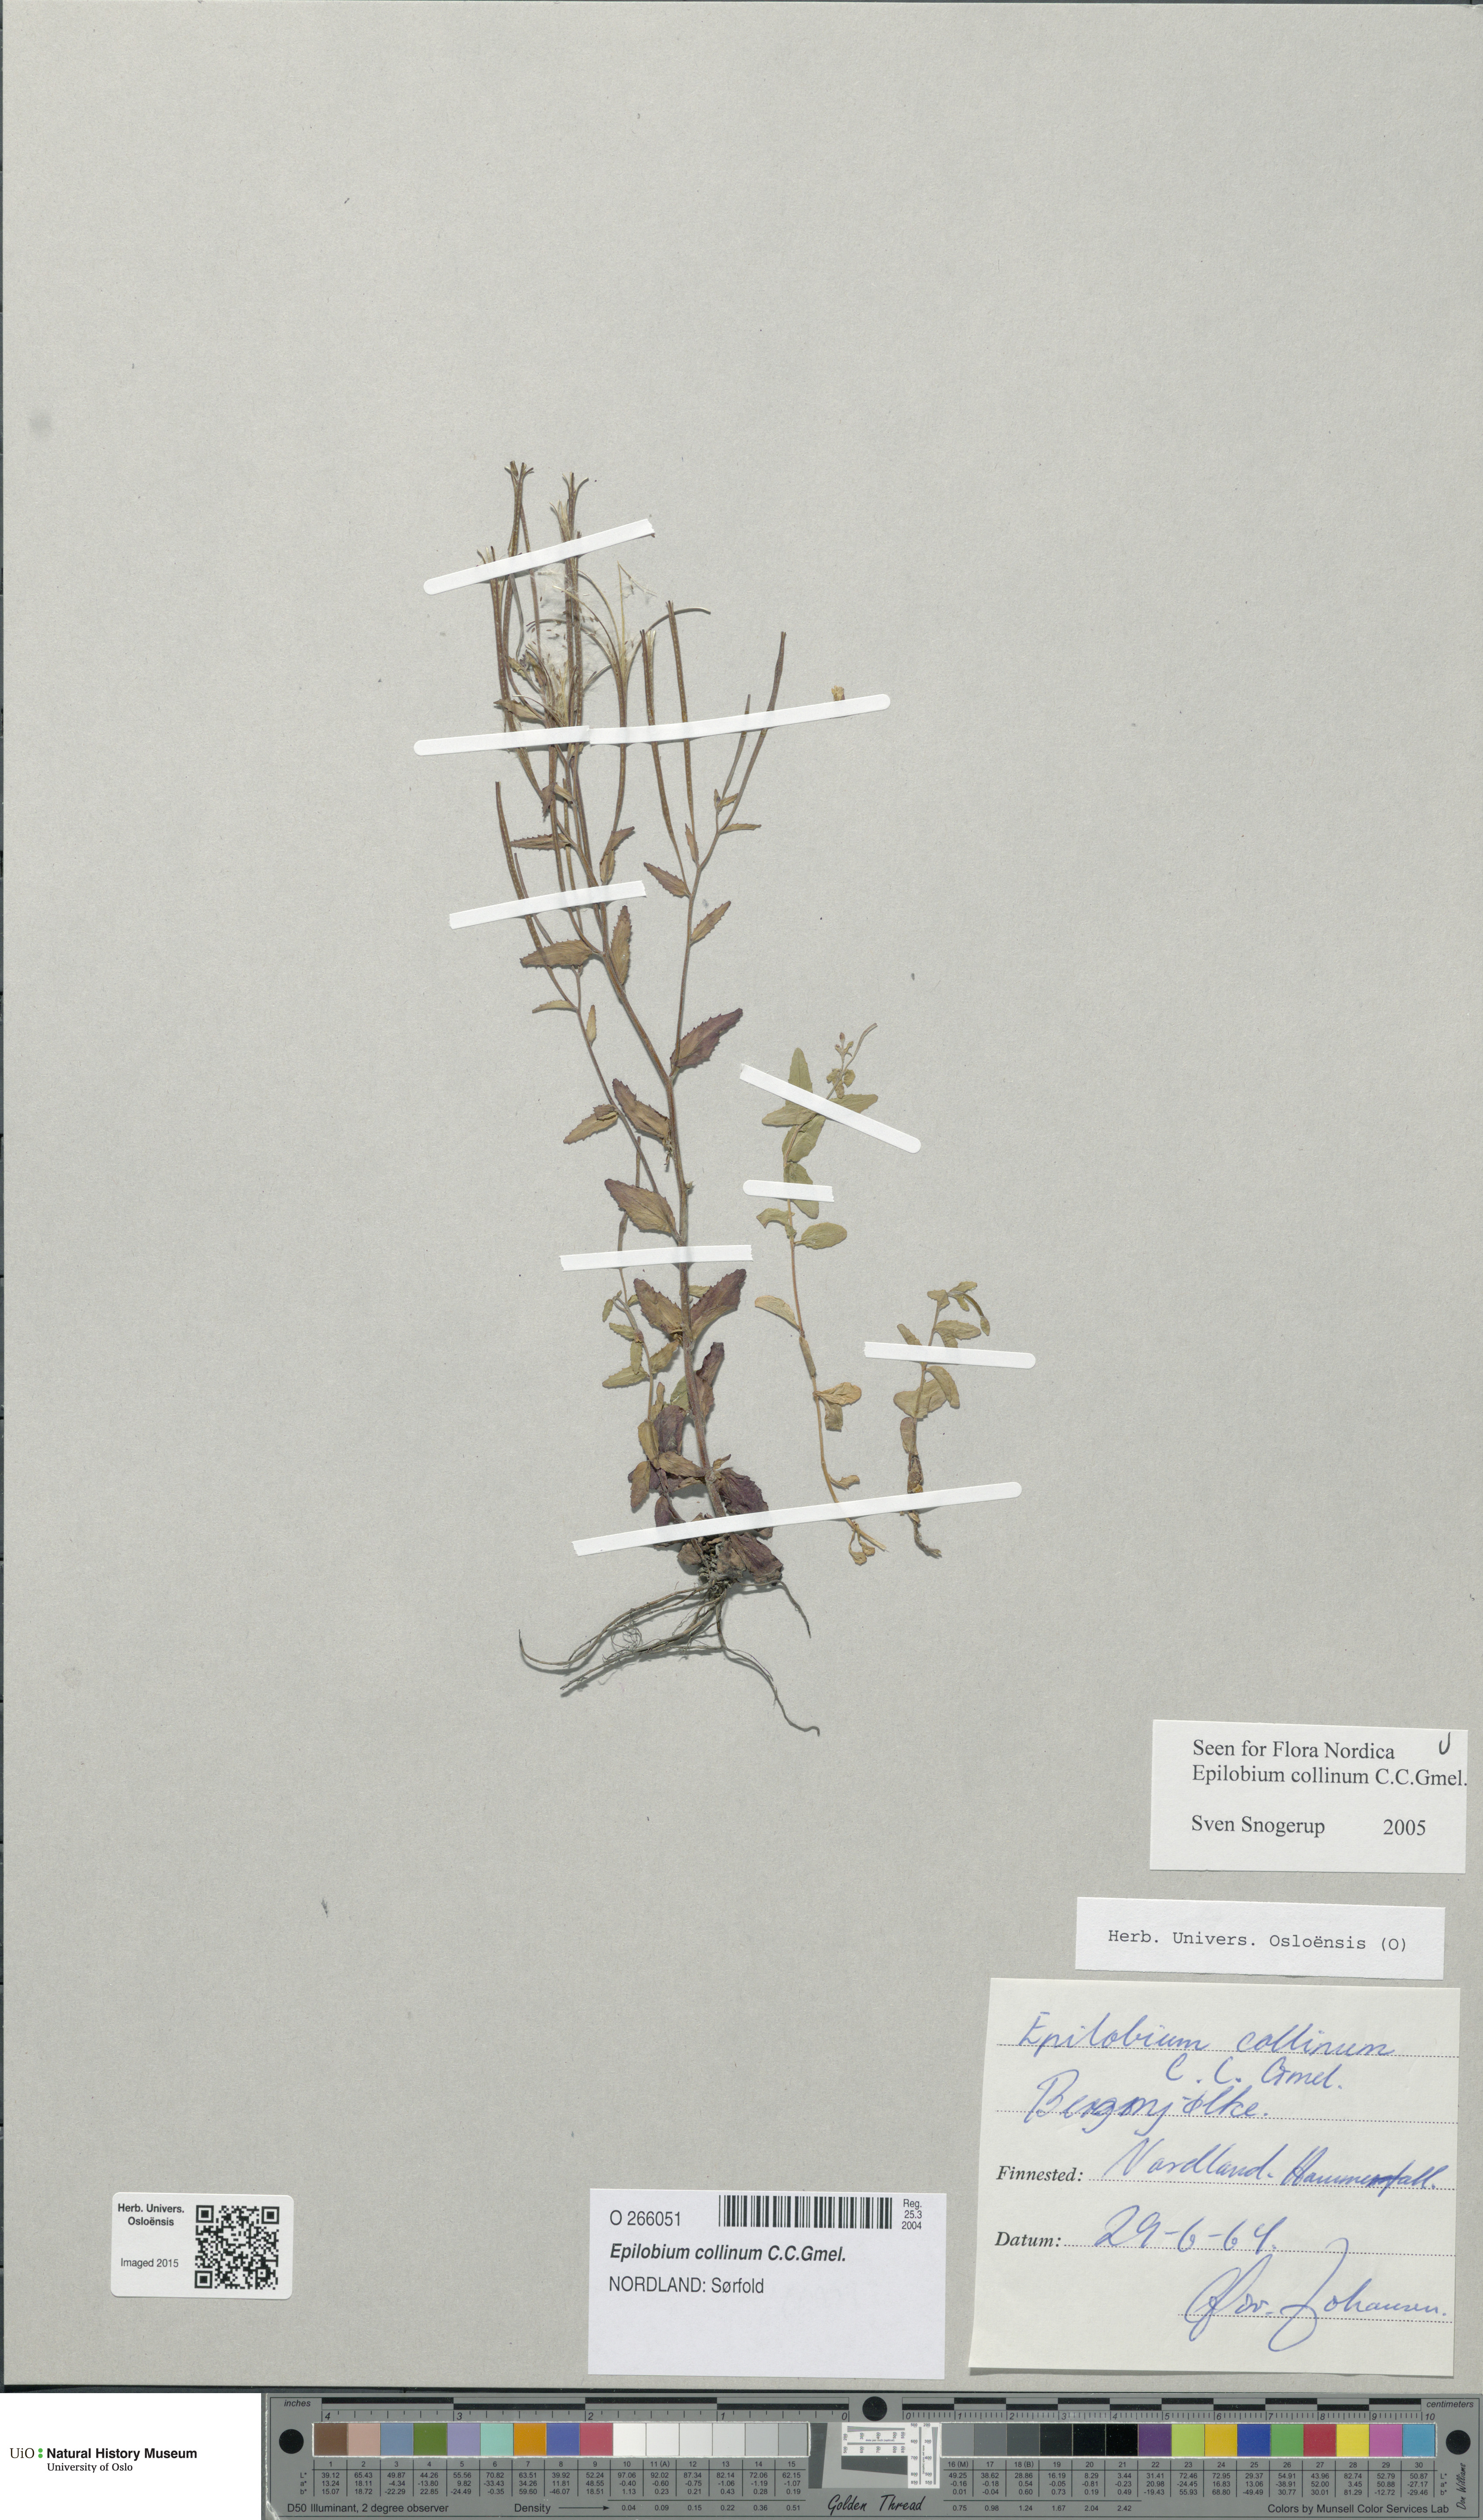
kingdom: Plantae
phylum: Tracheophyta
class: Magnoliopsida
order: Myrtales
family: Onagraceae
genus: Epilobium
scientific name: Epilobium collinum
